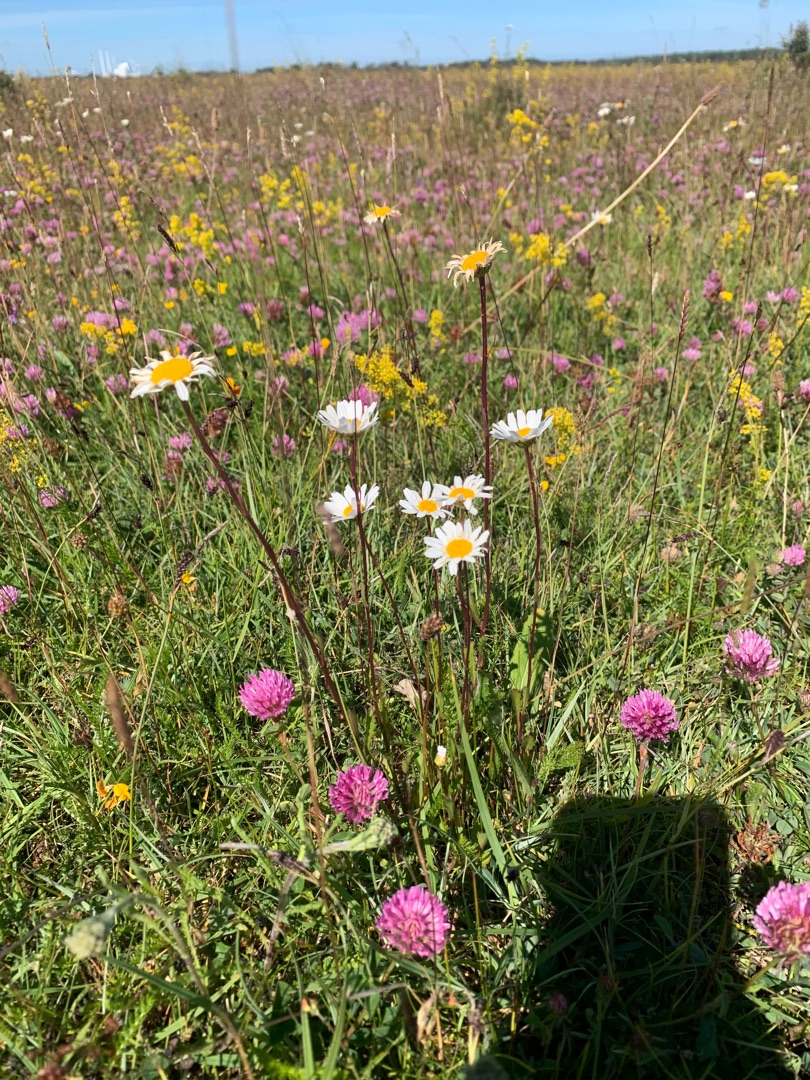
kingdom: Plantae
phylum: Tracheophyta
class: Magnoliopsida
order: Asterales
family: Asteraceae
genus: Leucanthemum
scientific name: Leucanthemum vulgare
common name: Hvid okseøje
